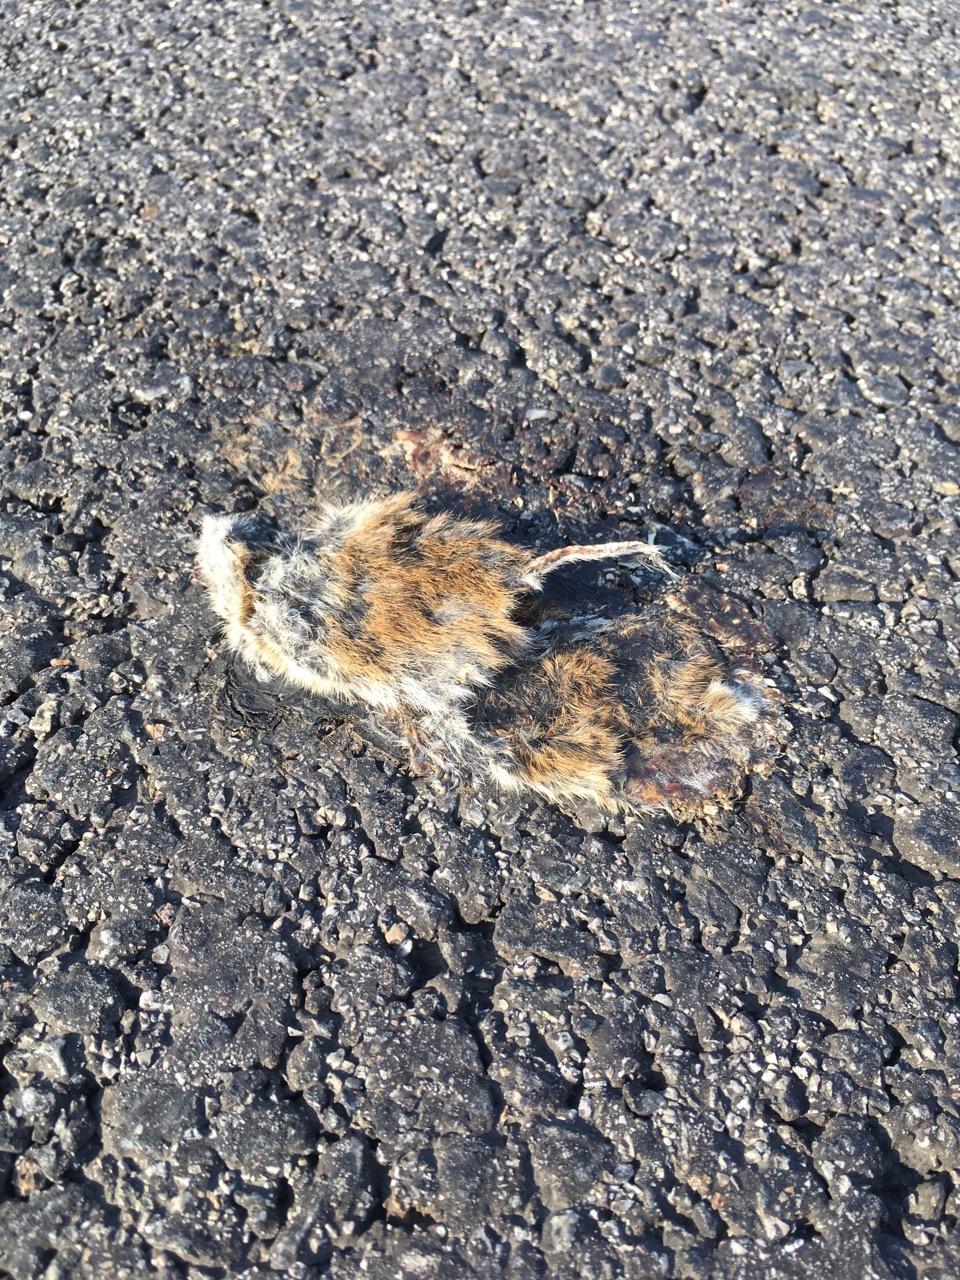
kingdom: Animalia
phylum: Chordata
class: Mammalia
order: Rodentia
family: Cricetidae
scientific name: Cricetidae
